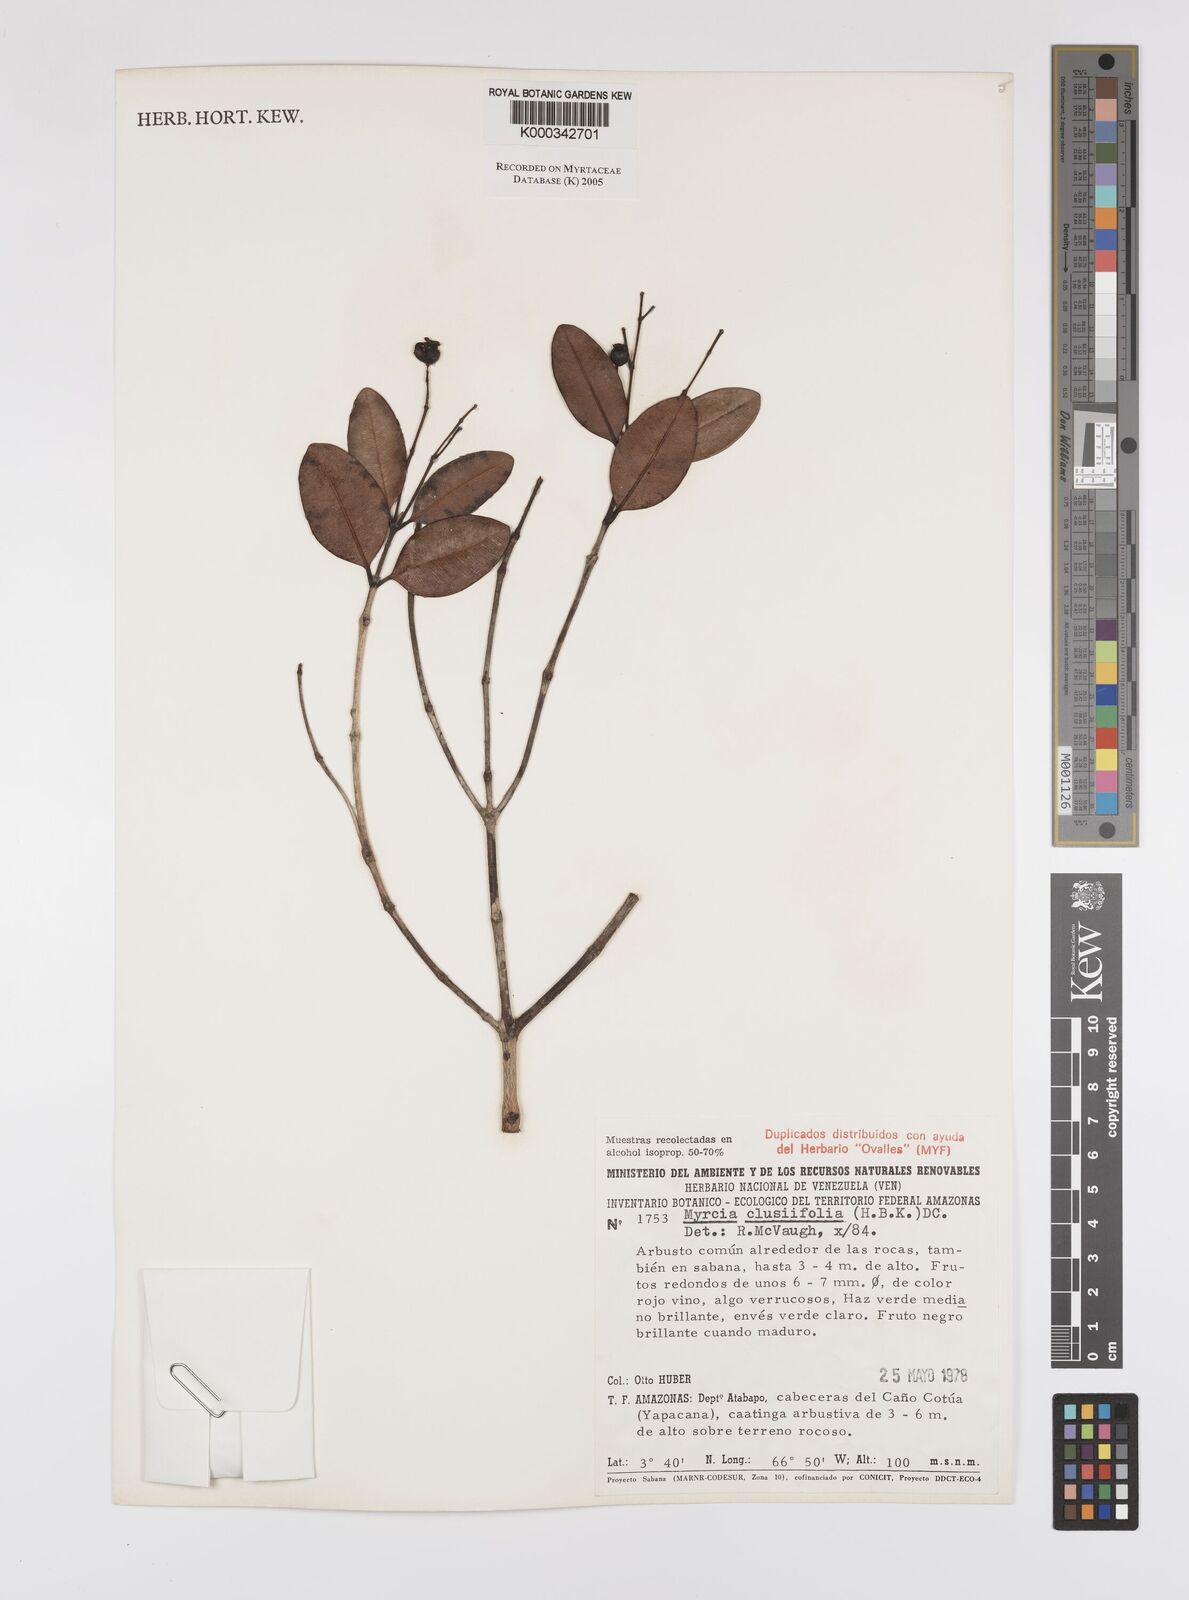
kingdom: Plantae
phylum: Tracheophyta
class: Magnoliopsida
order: Myrtales
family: Myrtaceae
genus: Myrcia
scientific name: Myrcia clusiifolia
